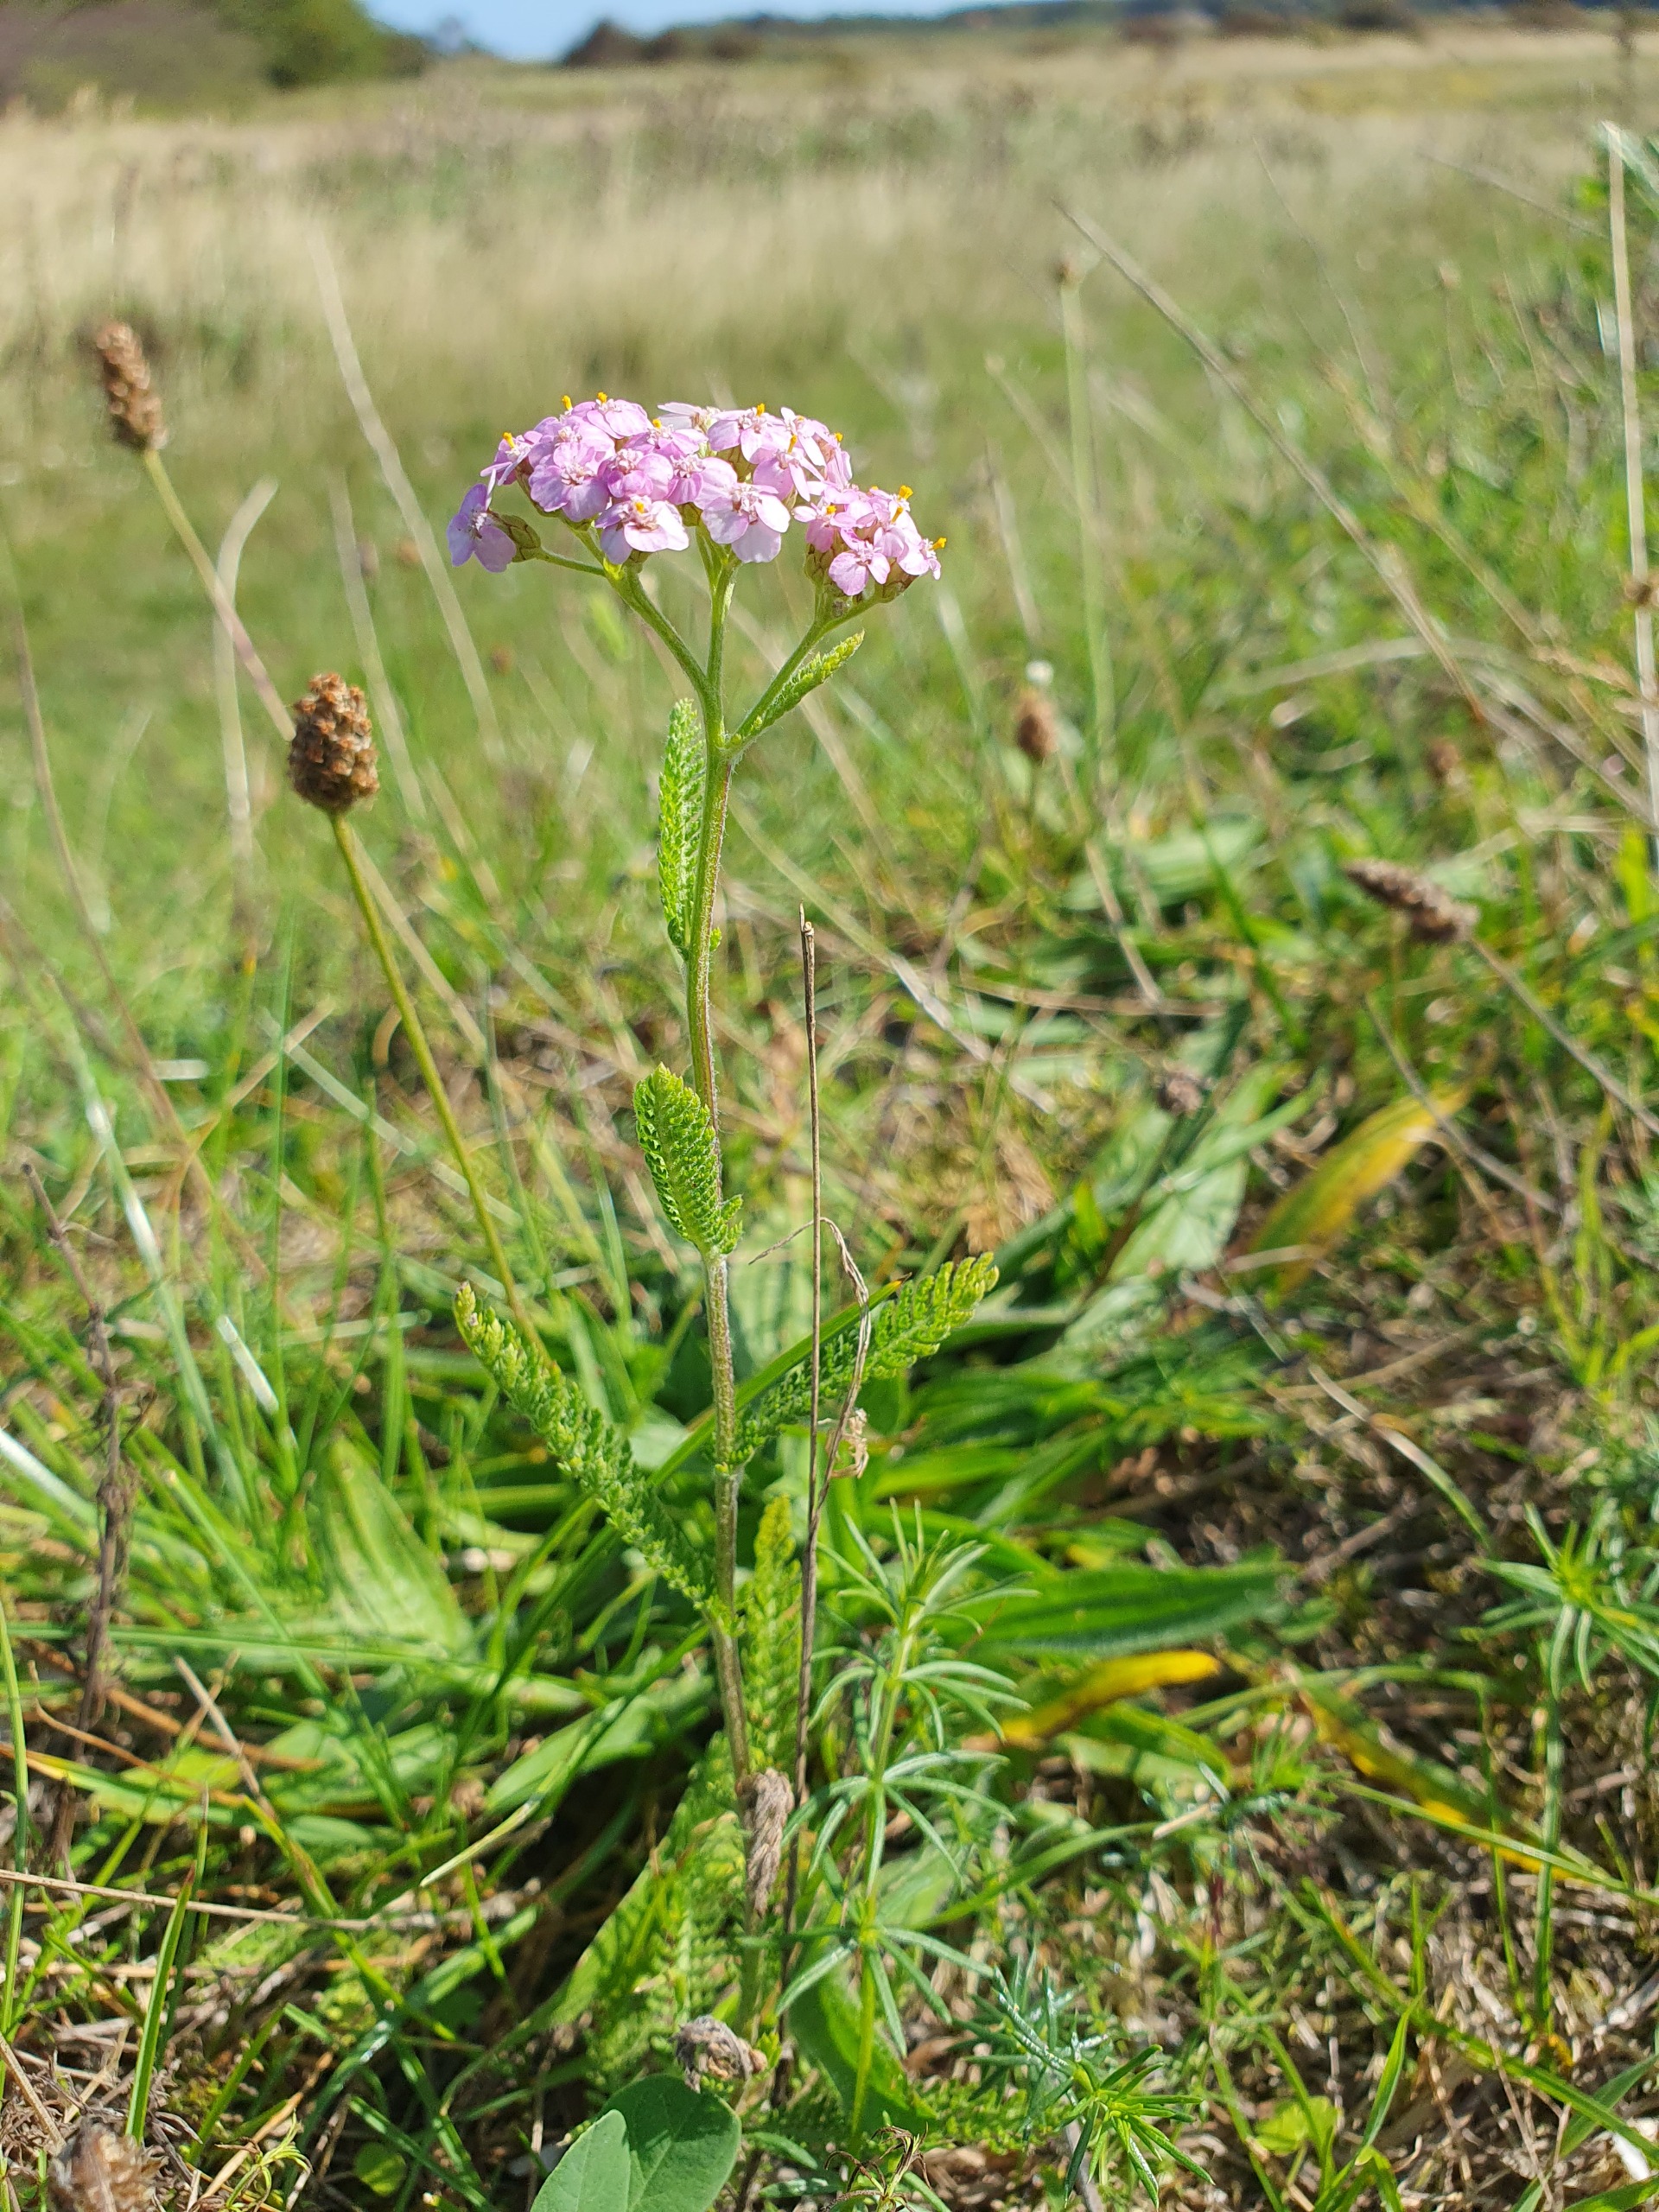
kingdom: Plantae
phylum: Tracheophyta
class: Magnoliopsida
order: Asterales
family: Asteraceae
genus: Achillea
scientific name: Achillea millefolium
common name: Almindelig røllike
